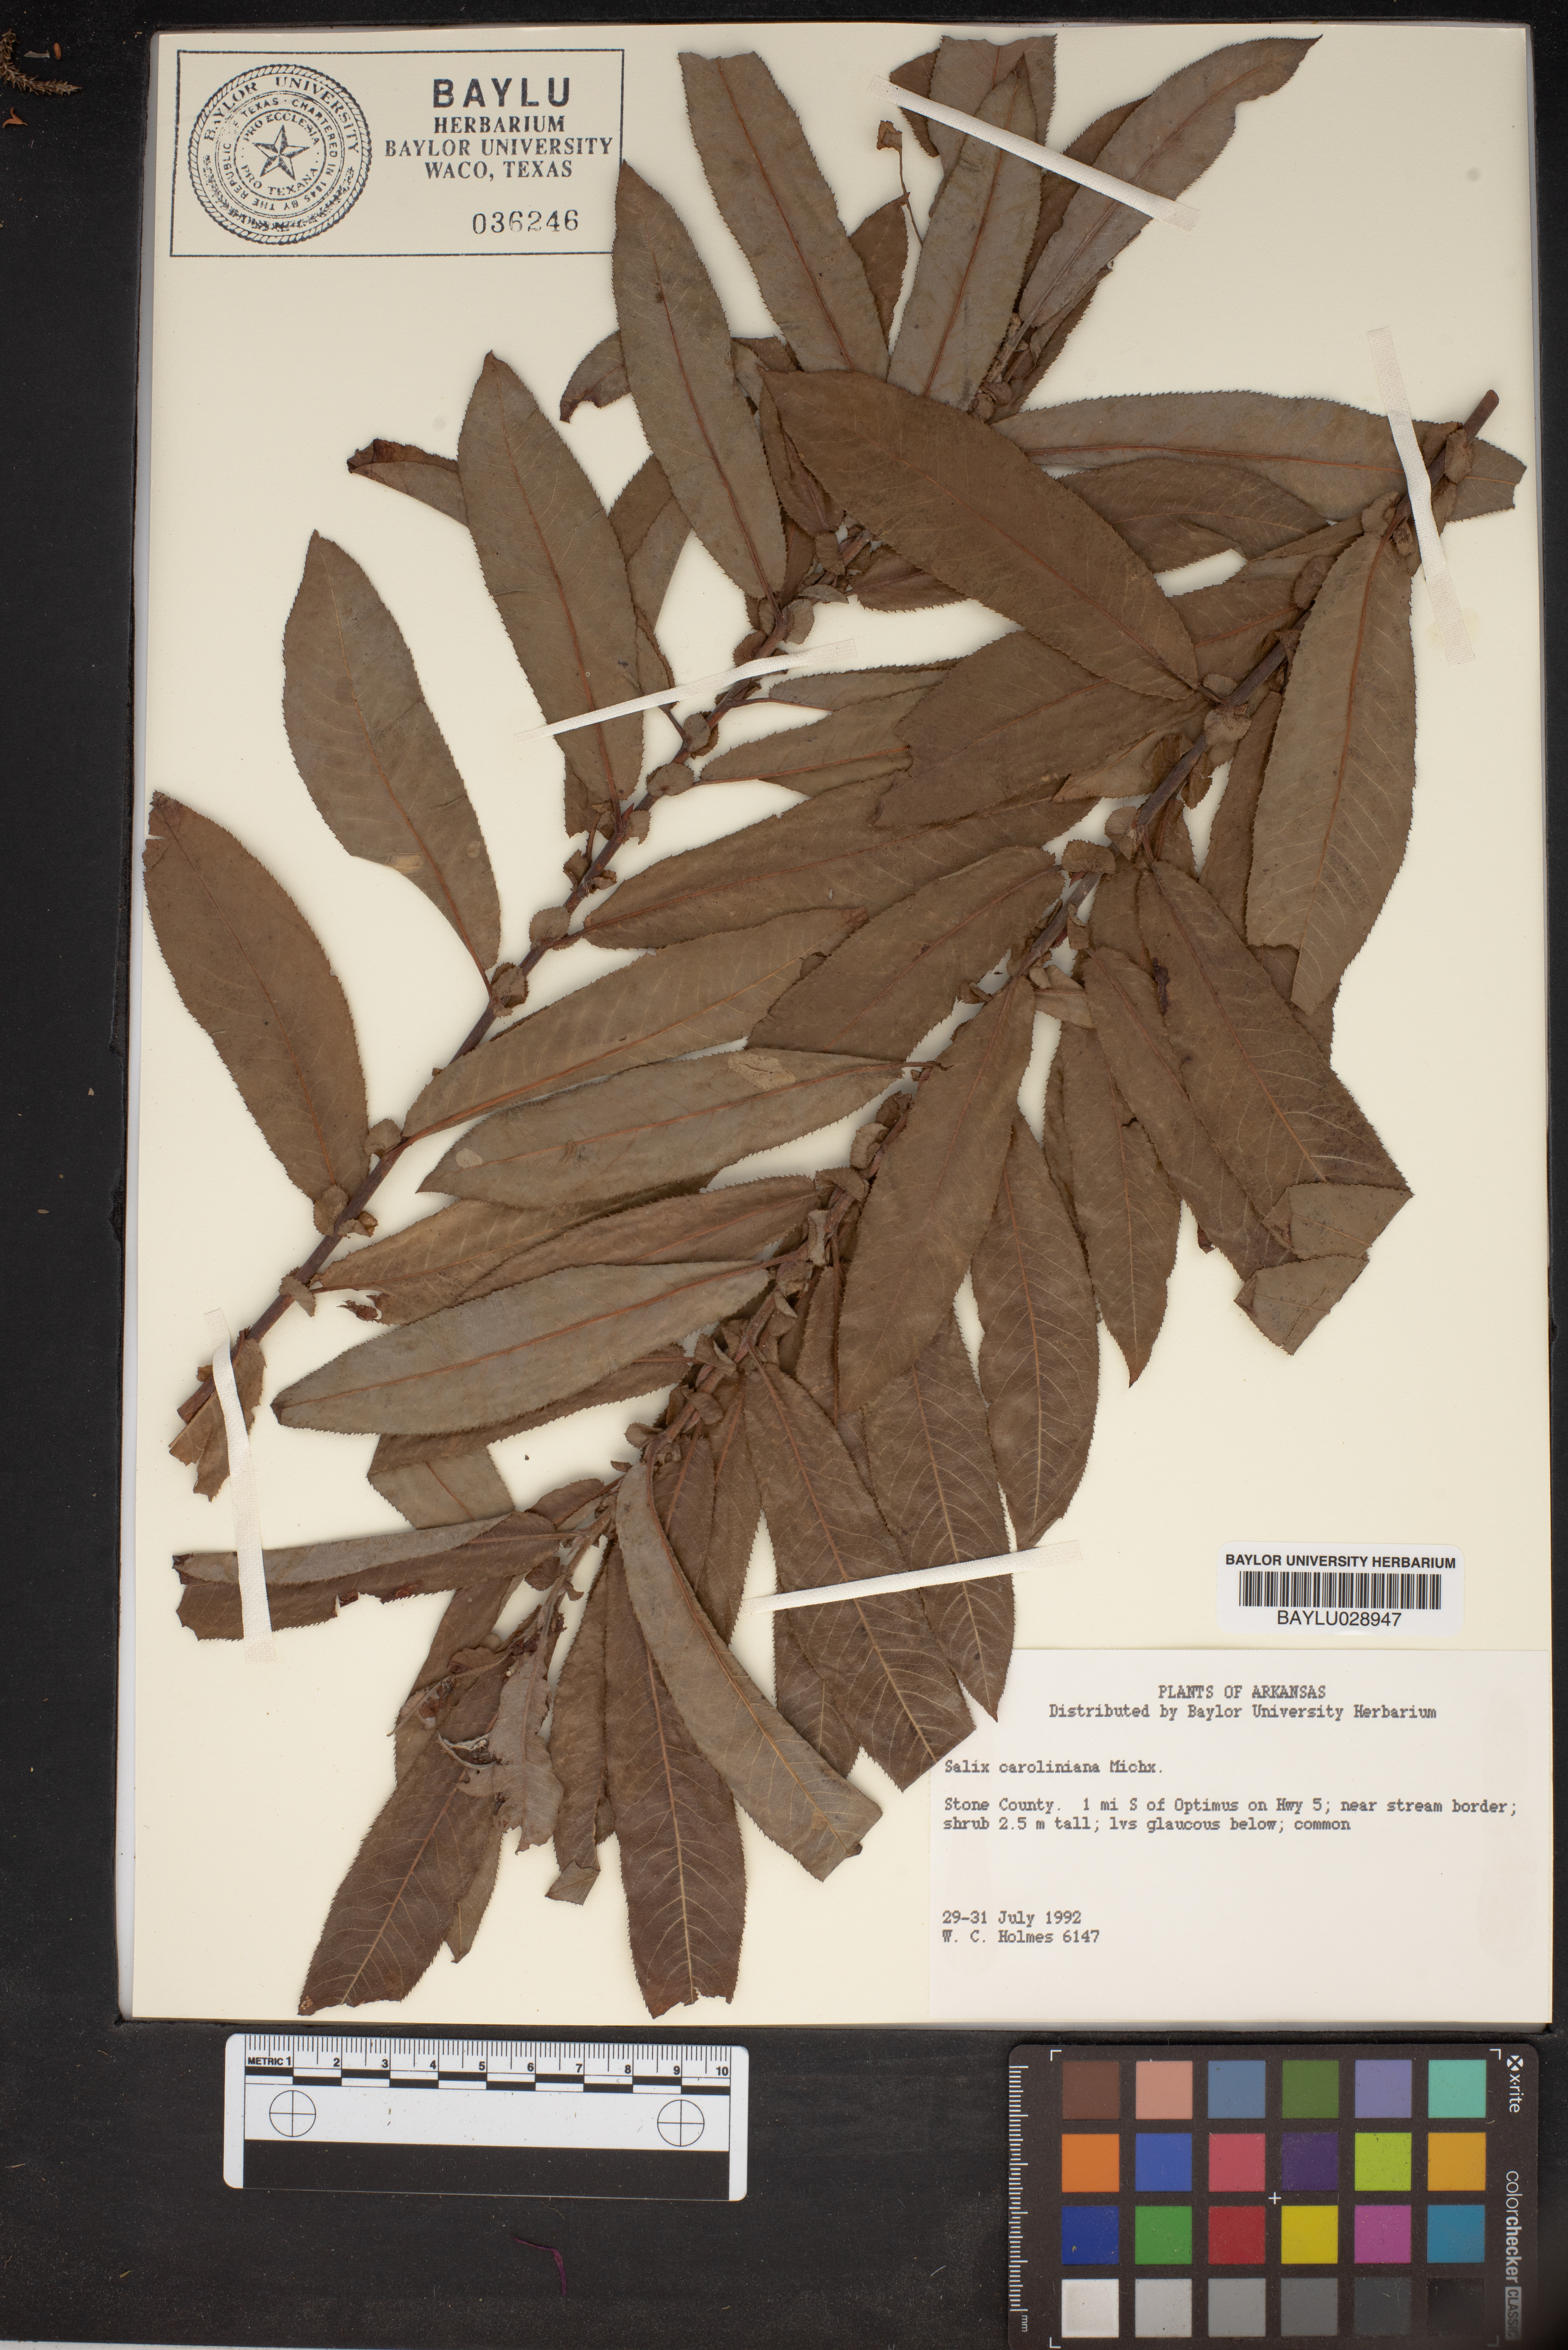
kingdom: Plantae
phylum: Tracheophyta
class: Magnoliopsida
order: Malpighiales
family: Salicaceae
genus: Salix
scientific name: Salix caroliniana
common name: Carolina willow
